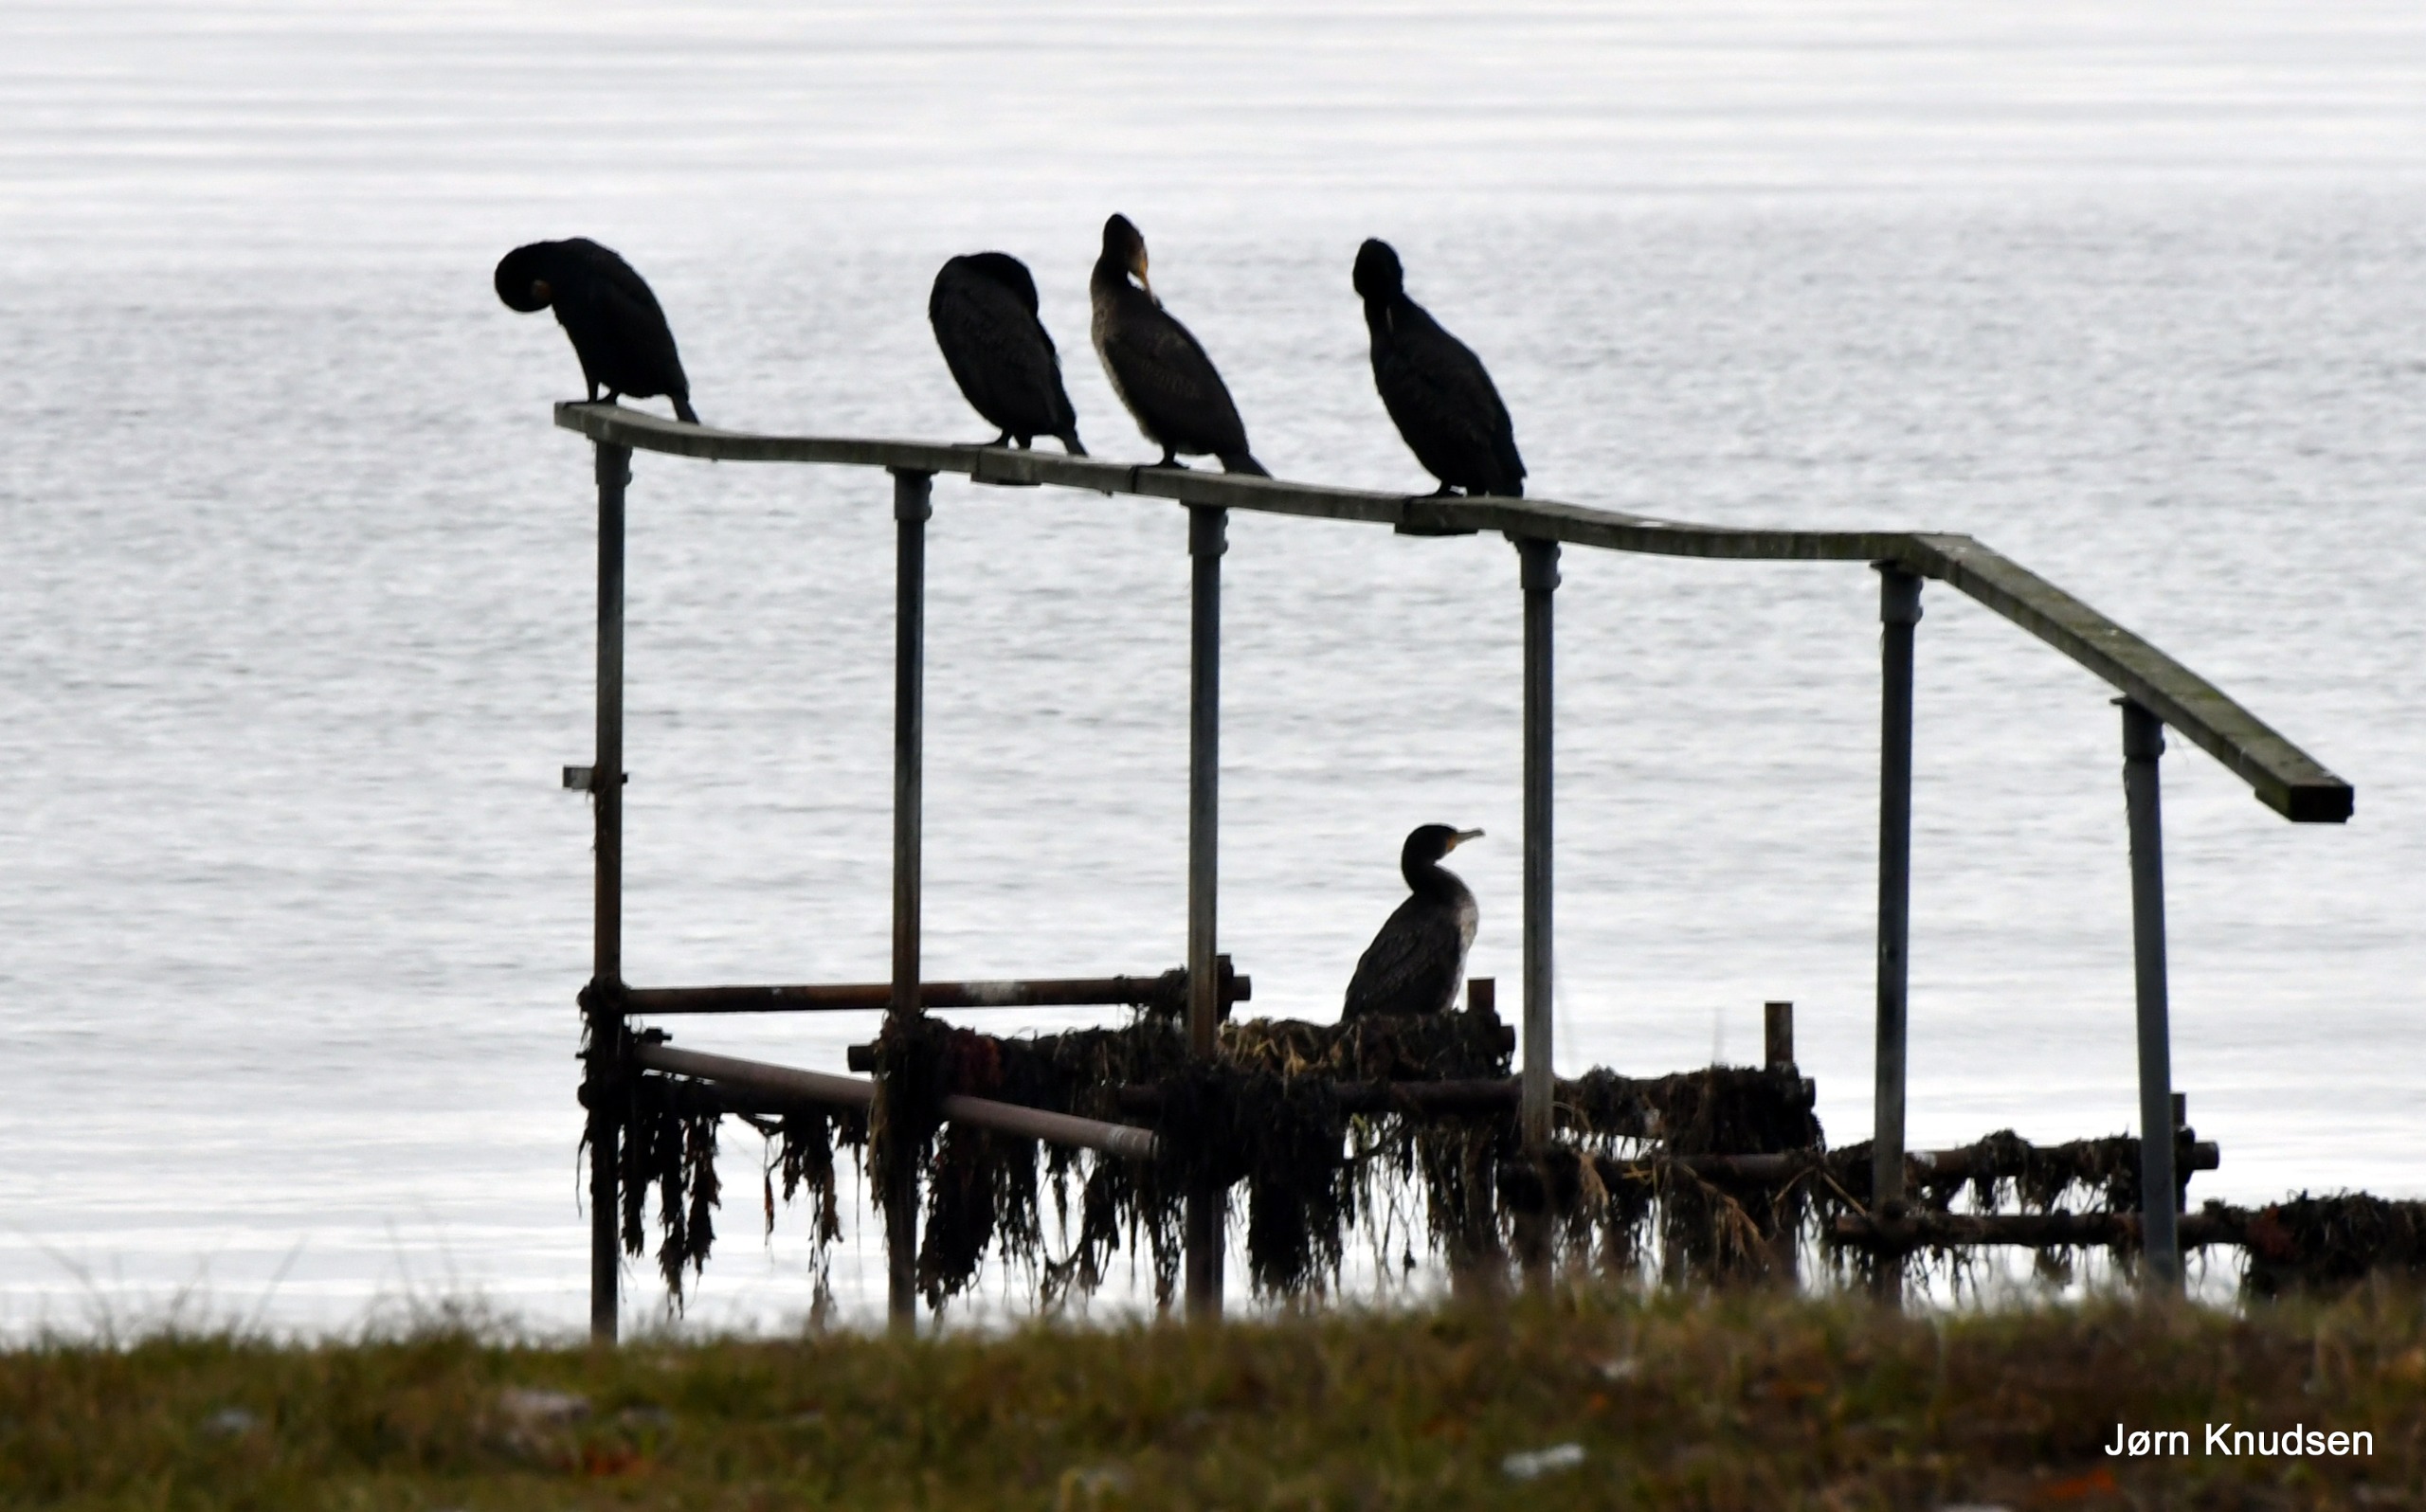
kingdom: Animalia
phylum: Chordata
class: Aves
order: Suliformes
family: Phalacrocoracidae
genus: Phalacrocorax
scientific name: Phalacrocorax carbo
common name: Skarv
